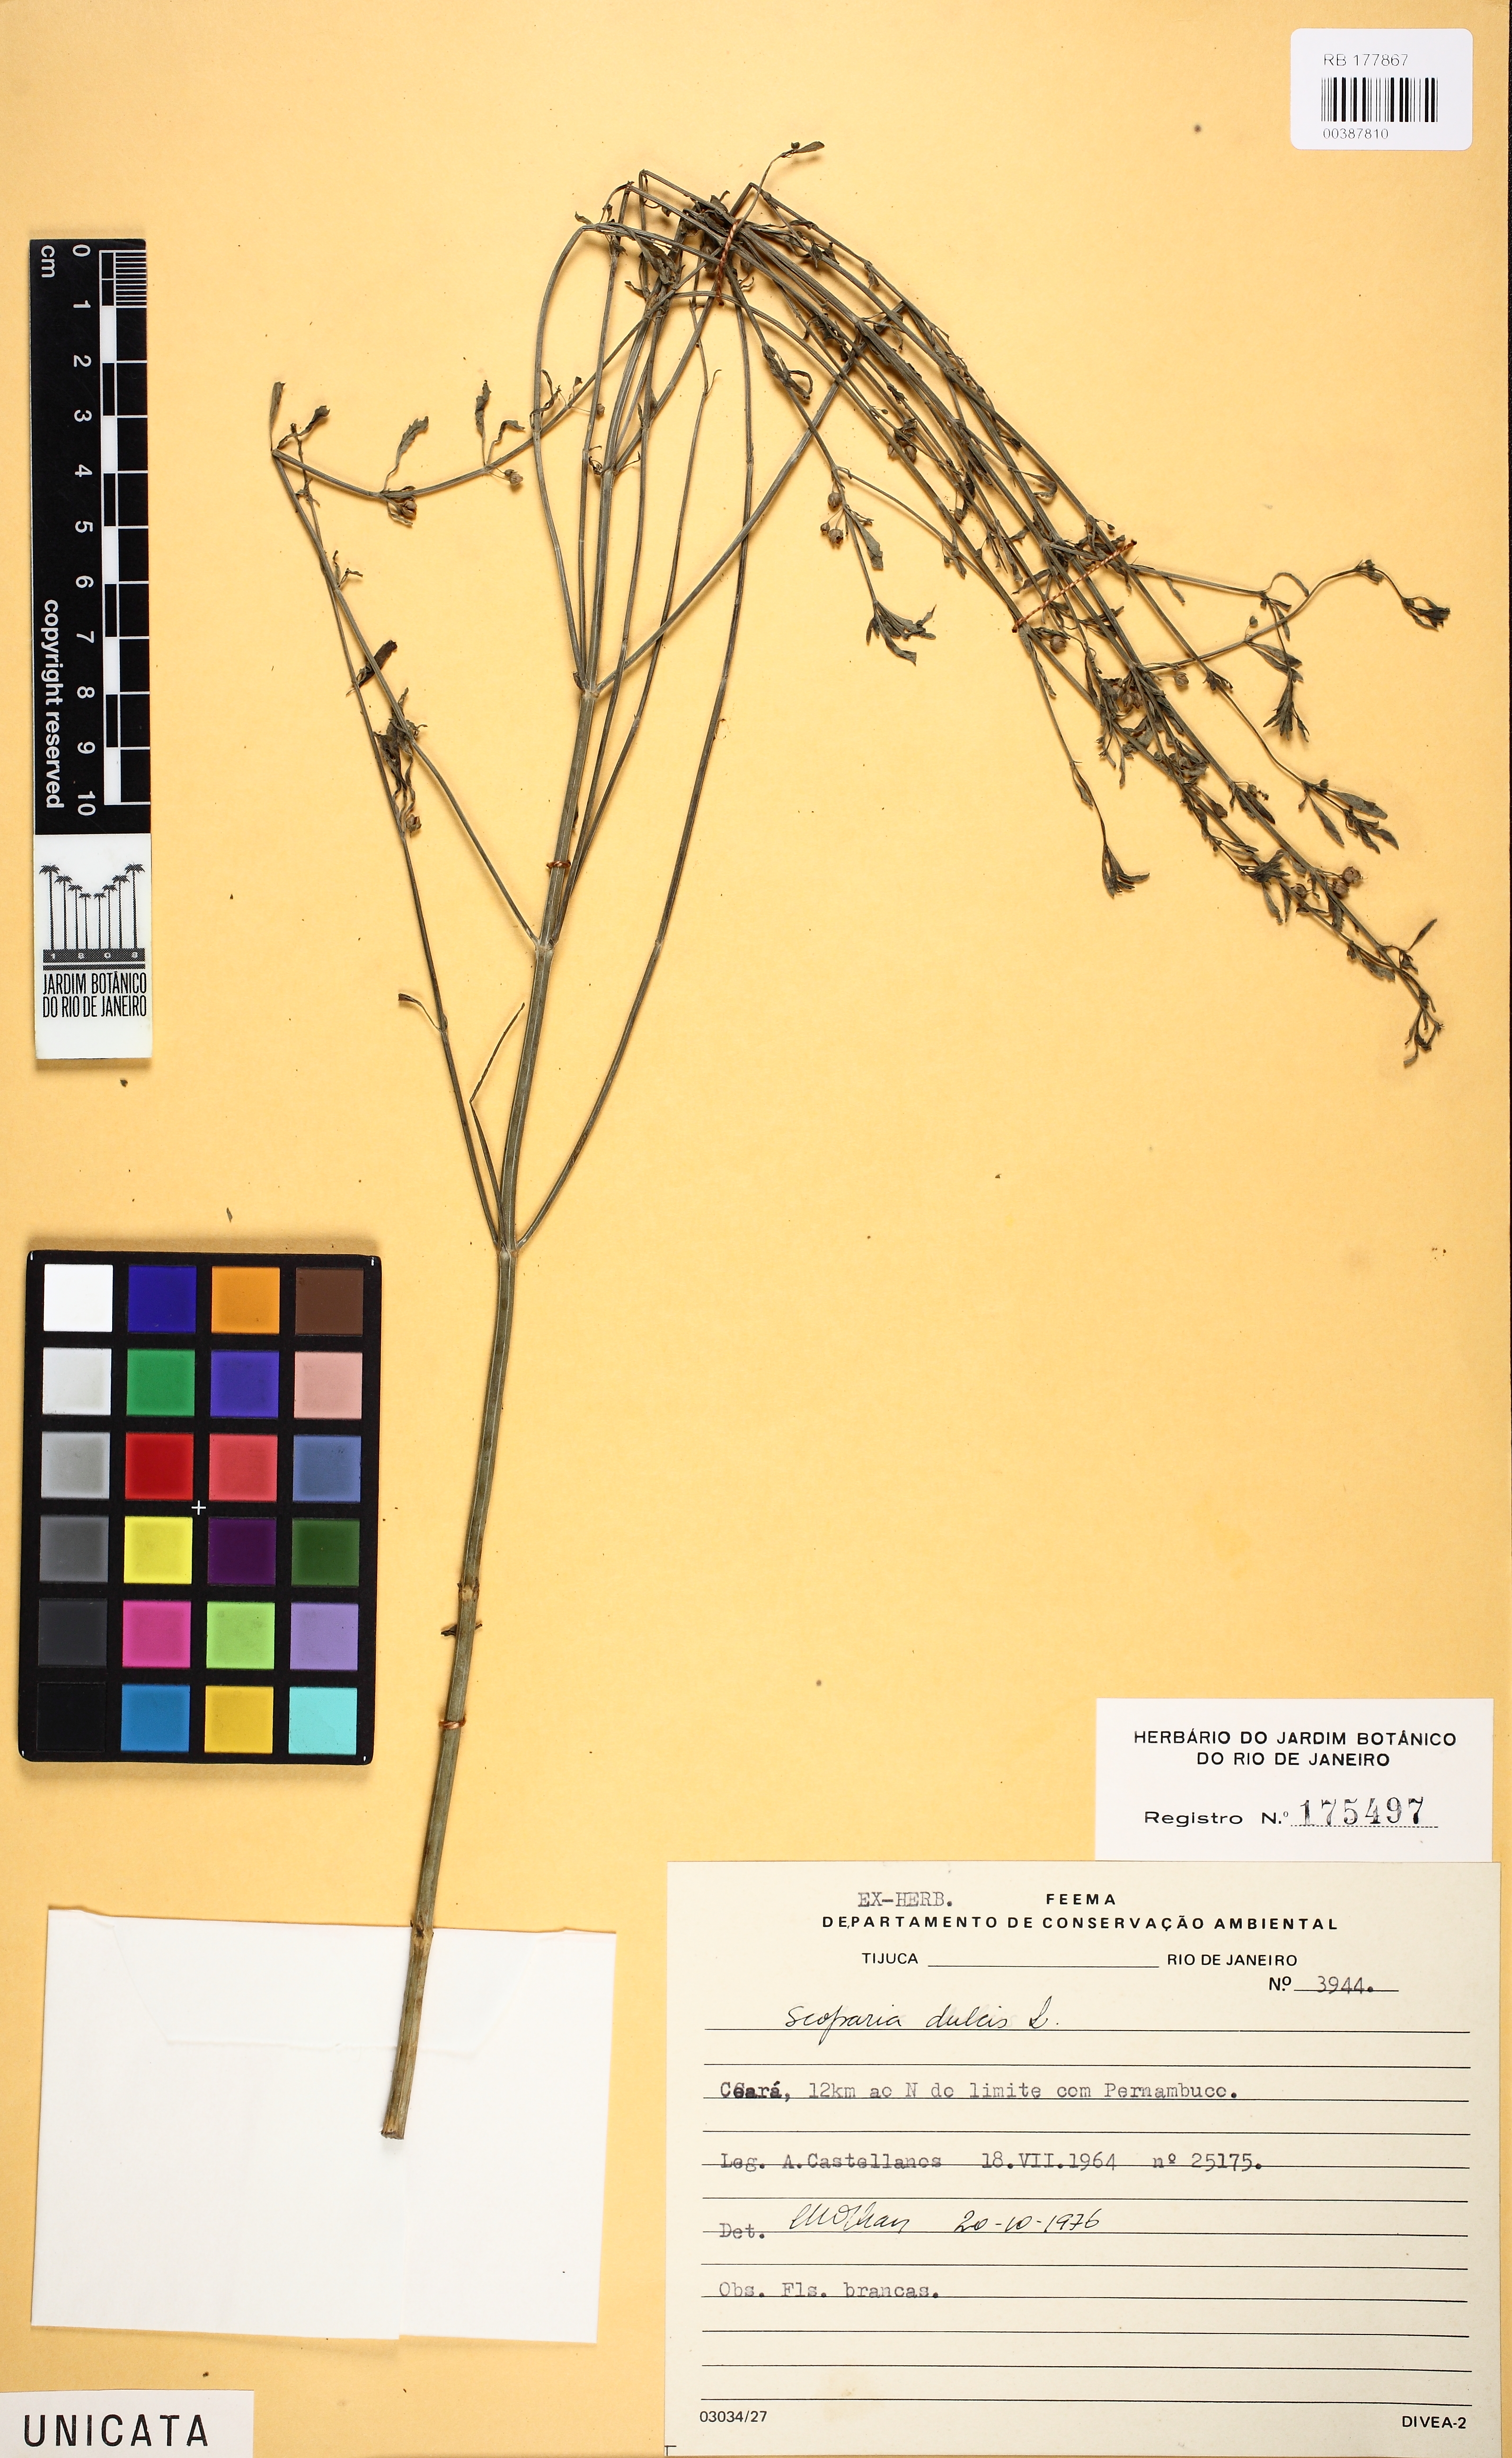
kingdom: Plantae
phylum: Tracheophyta
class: Magnoliopsida
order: Lamiales
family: Plantaginaceae
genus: Scoparia
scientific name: Scoparia dulcis
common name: Scoparia-weed
